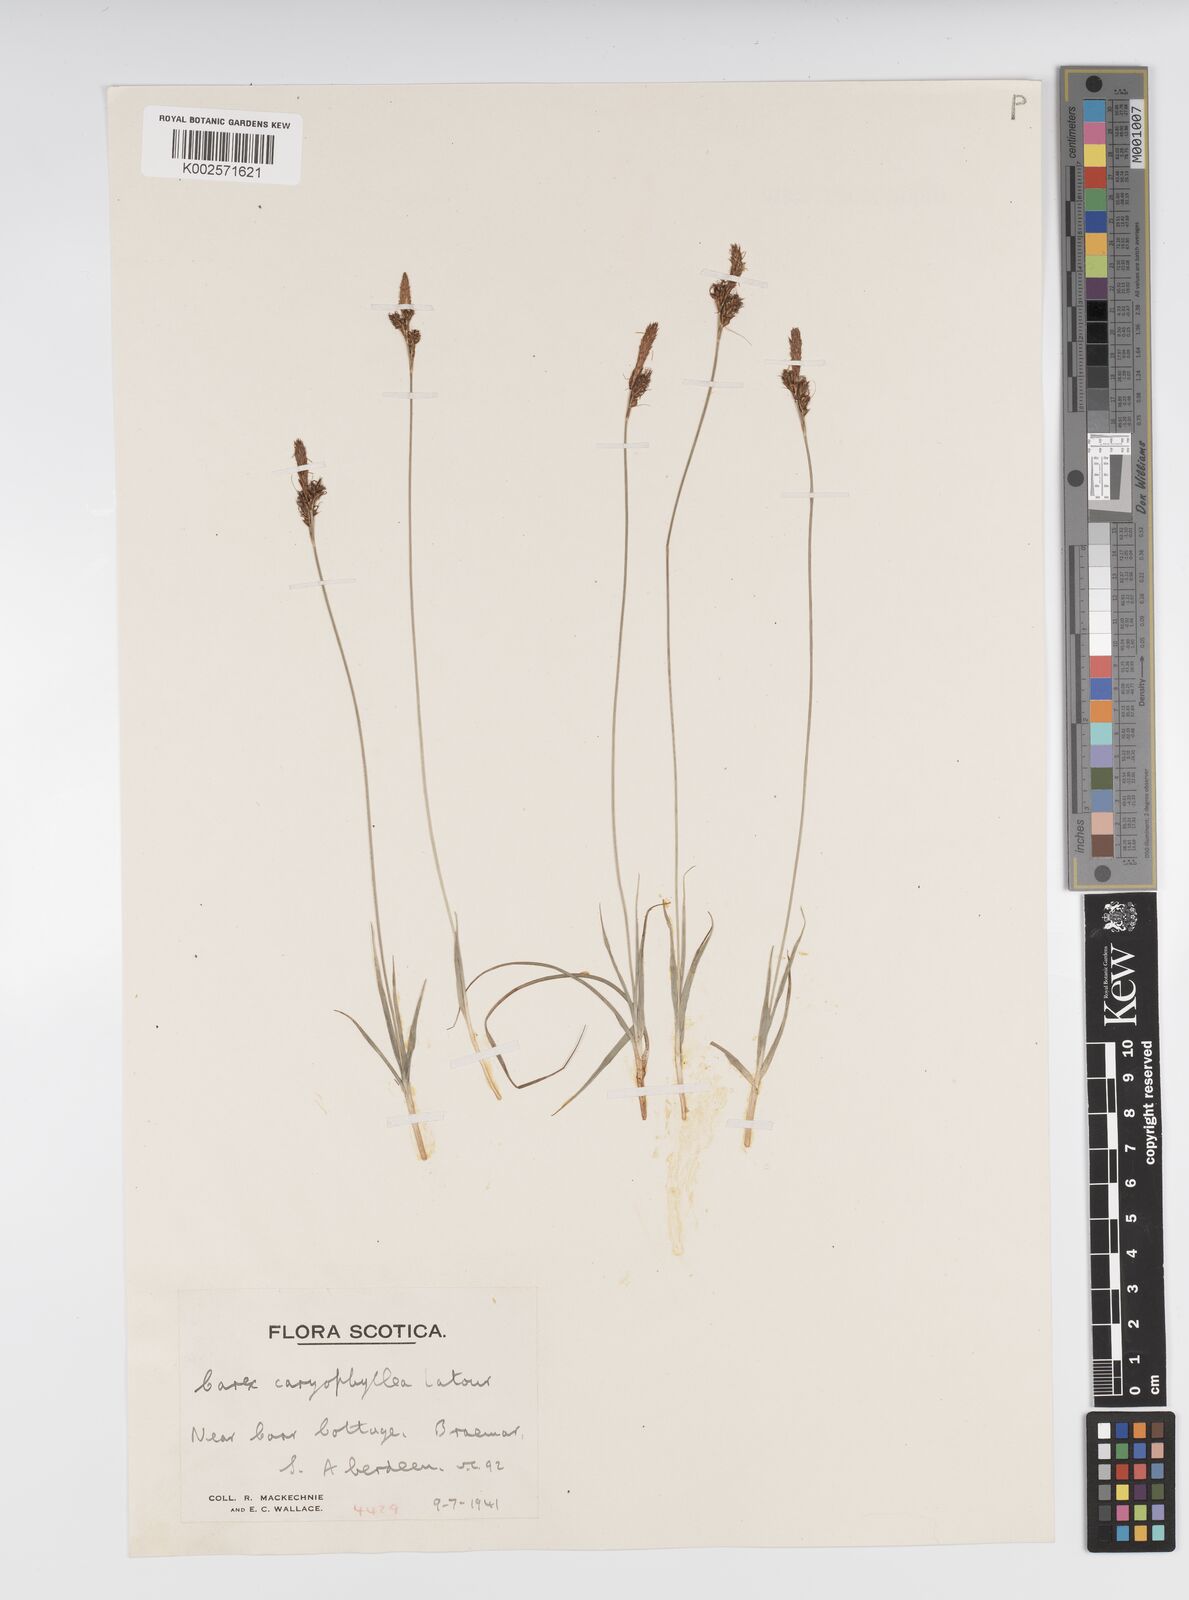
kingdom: Plantae
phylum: Tracheophyta
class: Liliopsida
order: Poales
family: Cyperaceae
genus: Carex
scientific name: Carex caryophyllea
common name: Spring sedge
